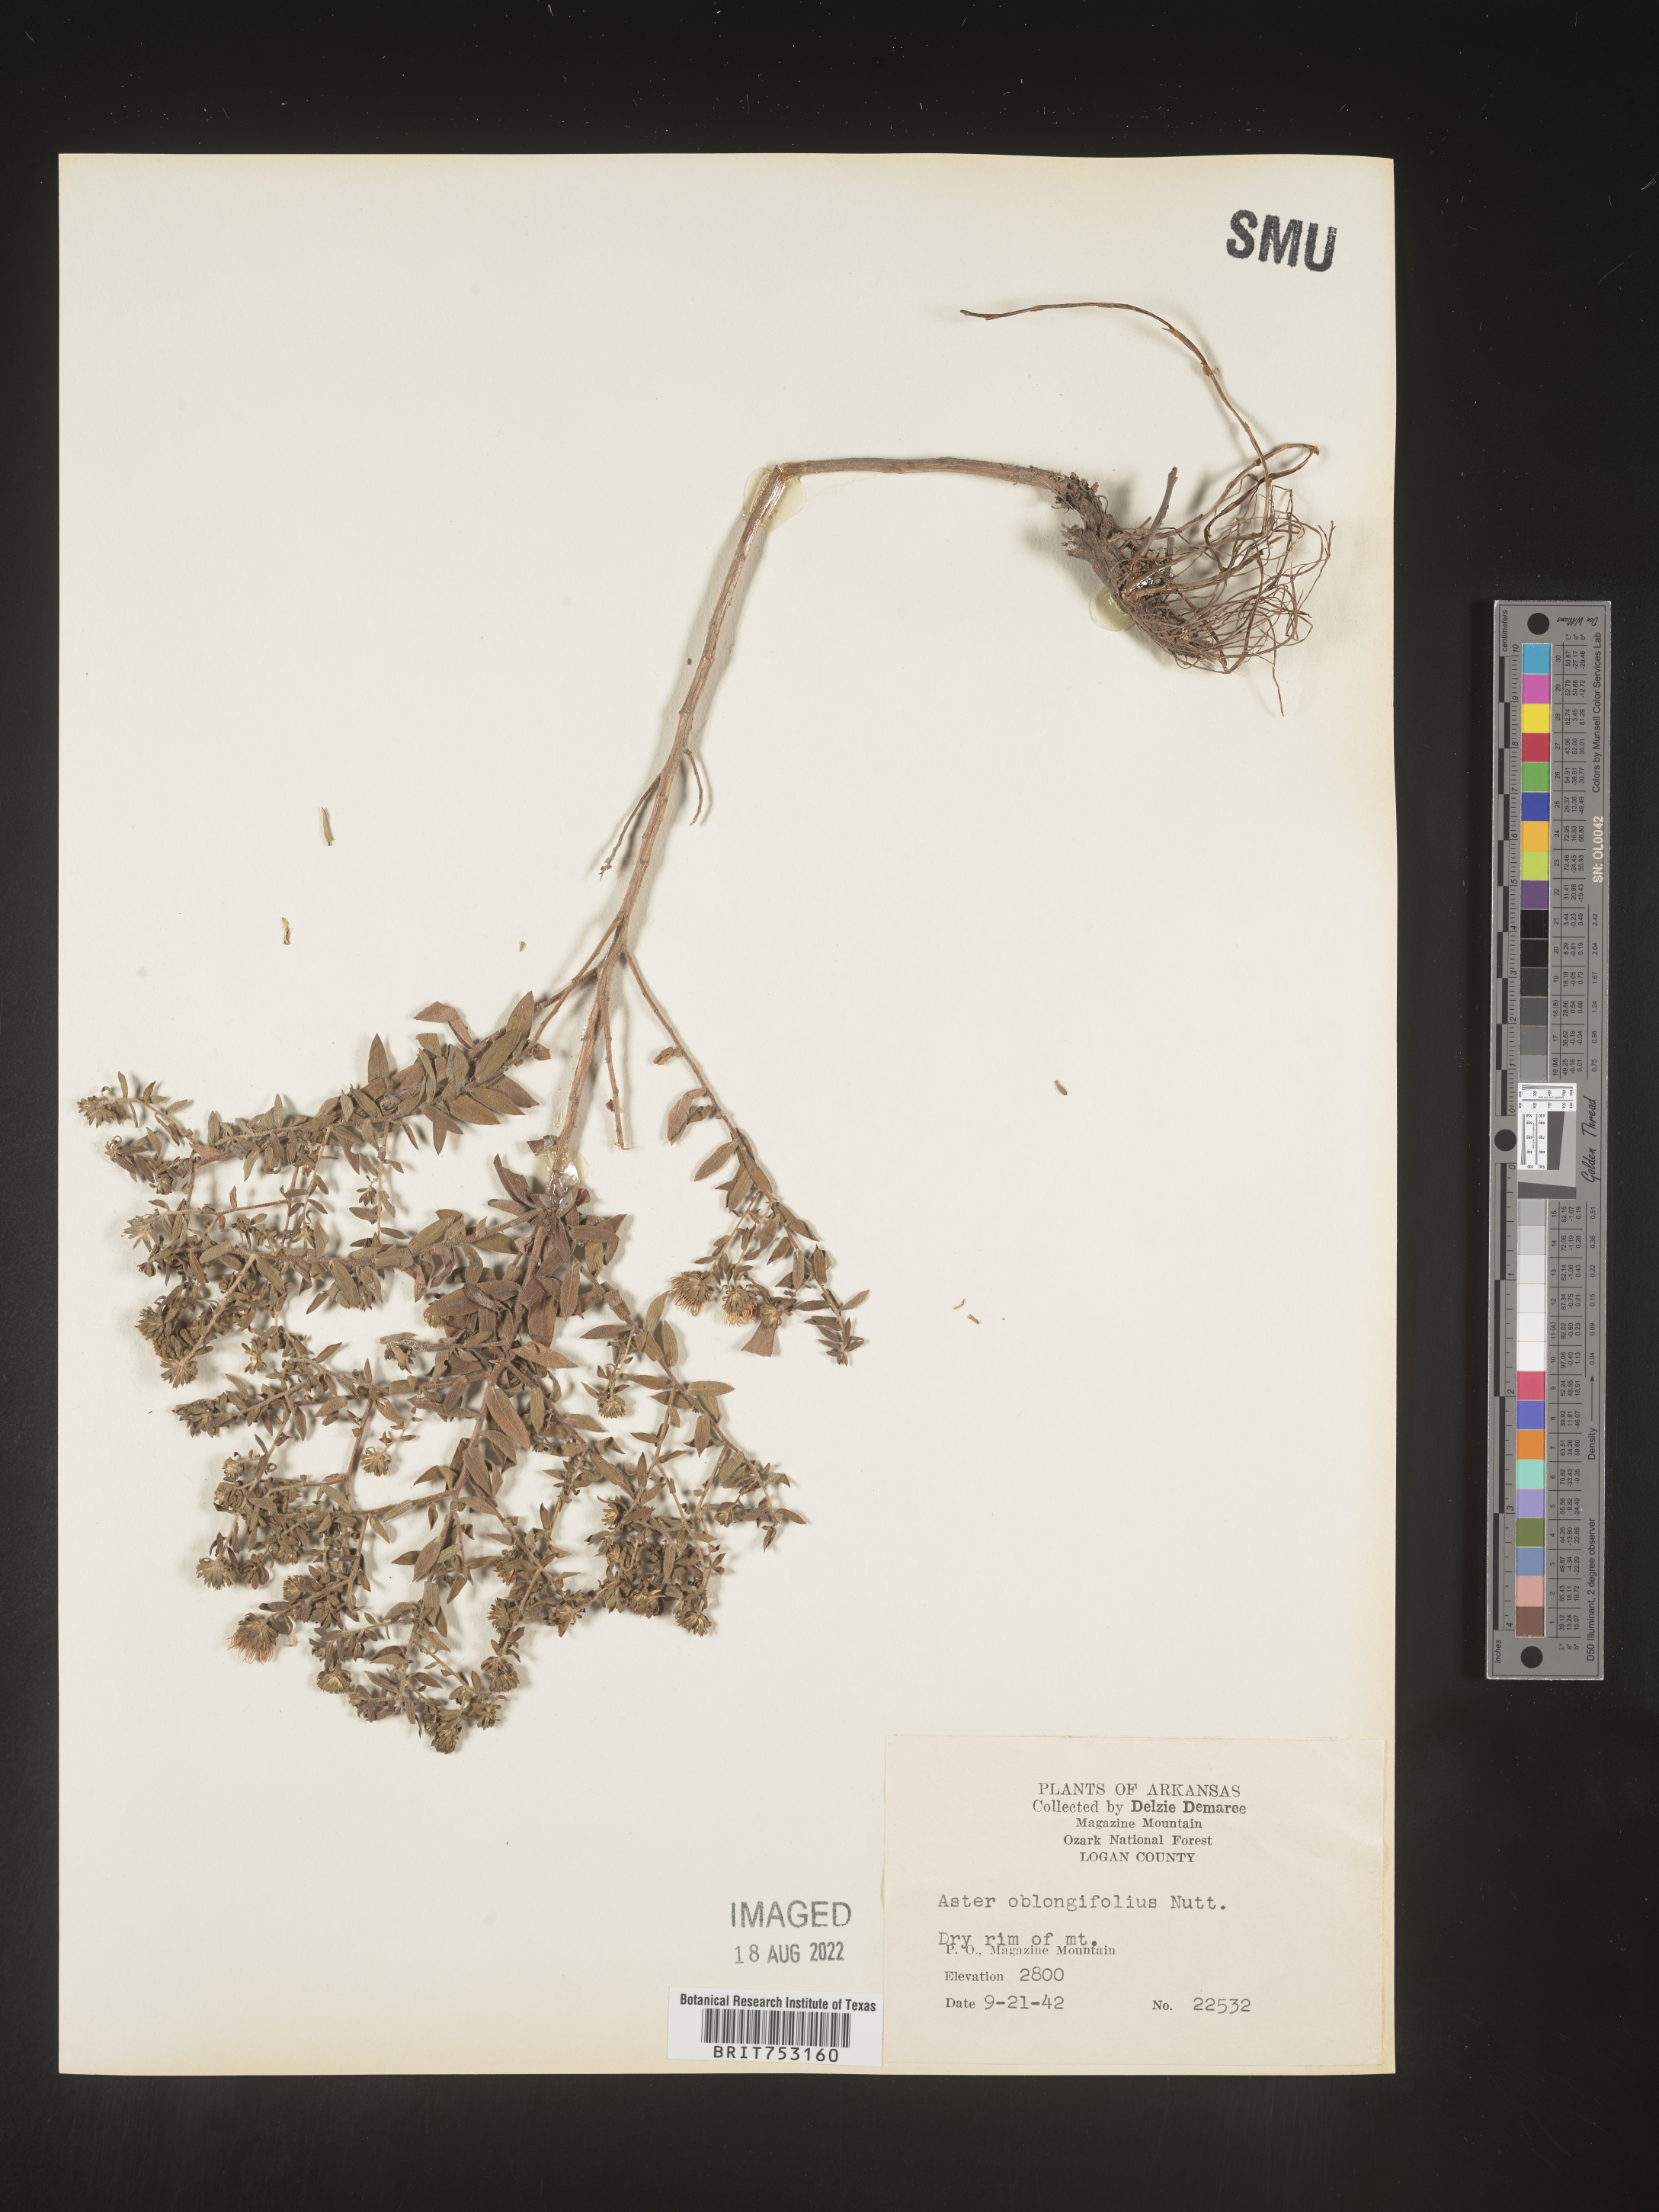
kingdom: Plantae
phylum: Tracheophyta
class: Magnoliopsida
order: Asterales
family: Asteraceae
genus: Symphyotrichum
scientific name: Symphyotrichum oblongifolium
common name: Aromatic aster
